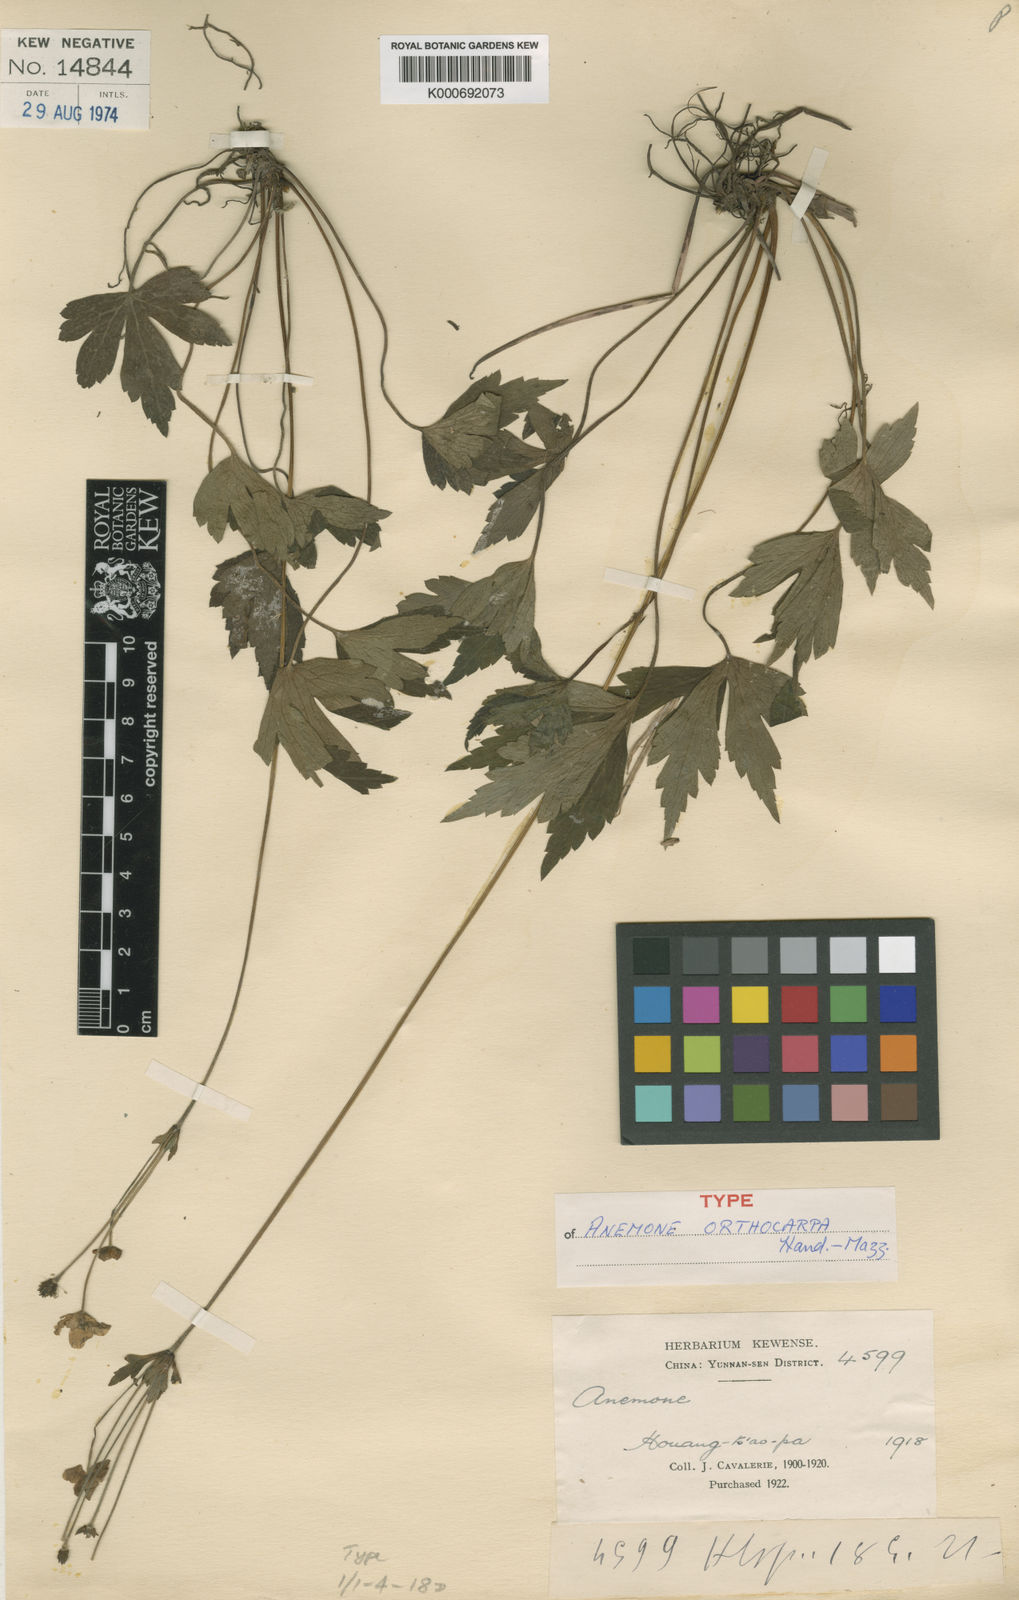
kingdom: Plantae
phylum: Tracheophyta
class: Magnoliopsida
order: Ranunculales
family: Ranunculaceae
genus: Anemone
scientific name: Anemone orthocarpa
